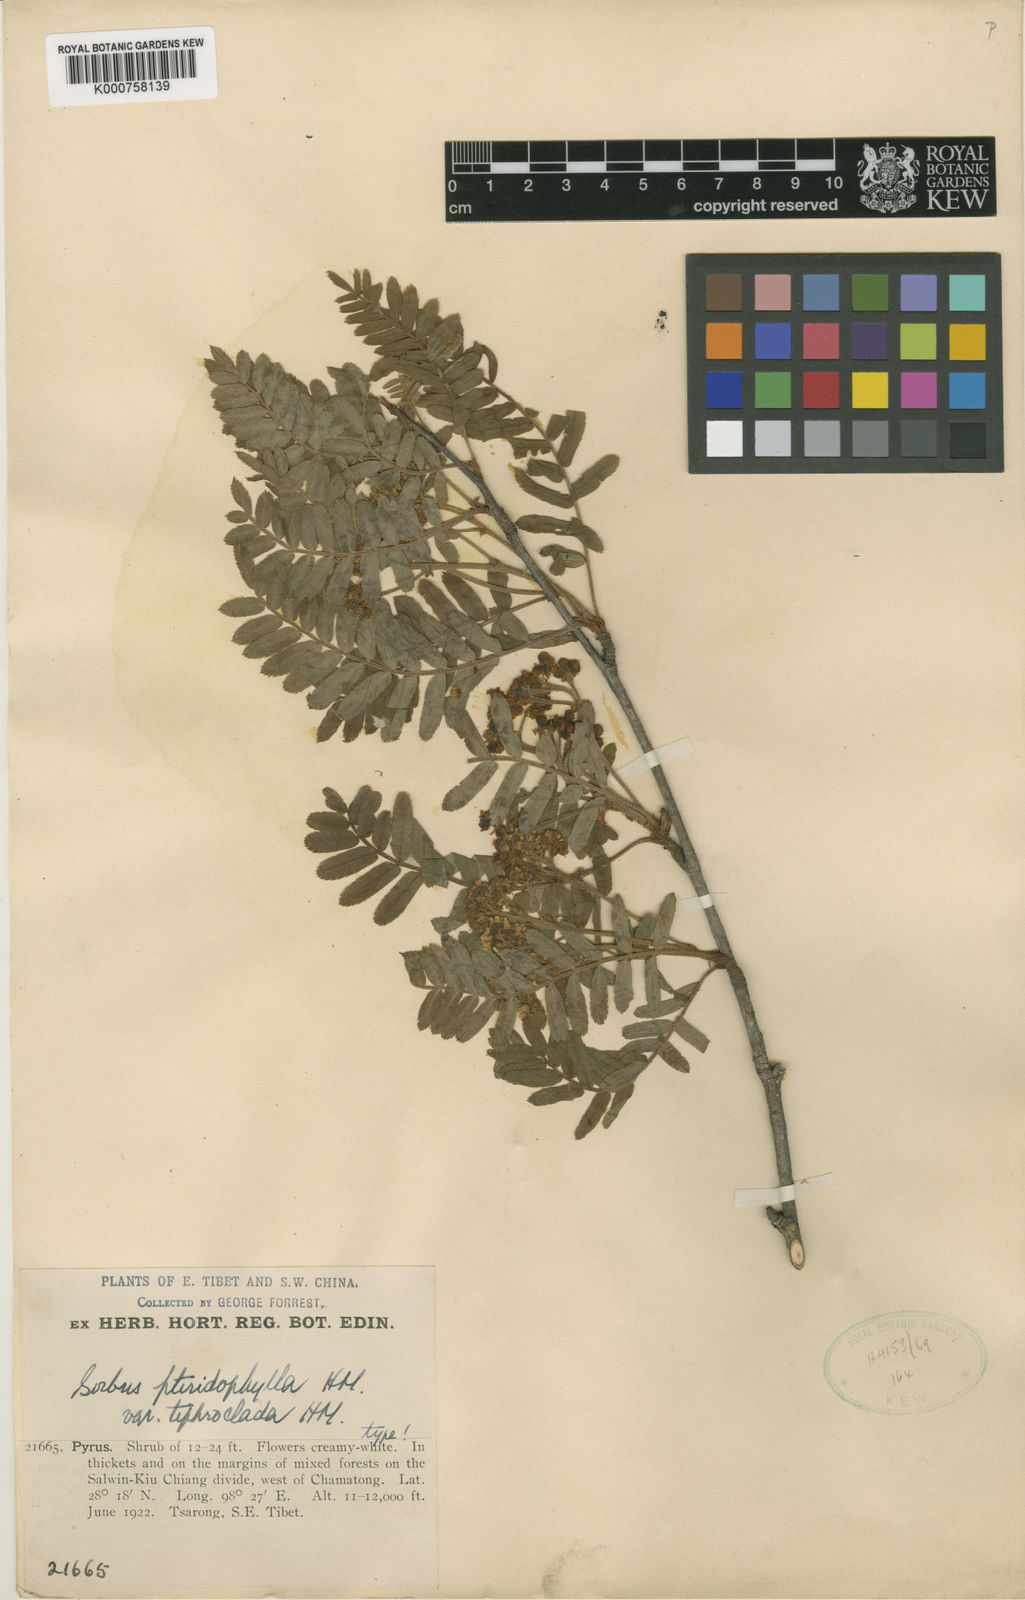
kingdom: Plantae
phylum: Tracheophyta
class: Magnoliopsida
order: Rosales
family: Rosaceae
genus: Sorbus
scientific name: Sorbus glomerulata
